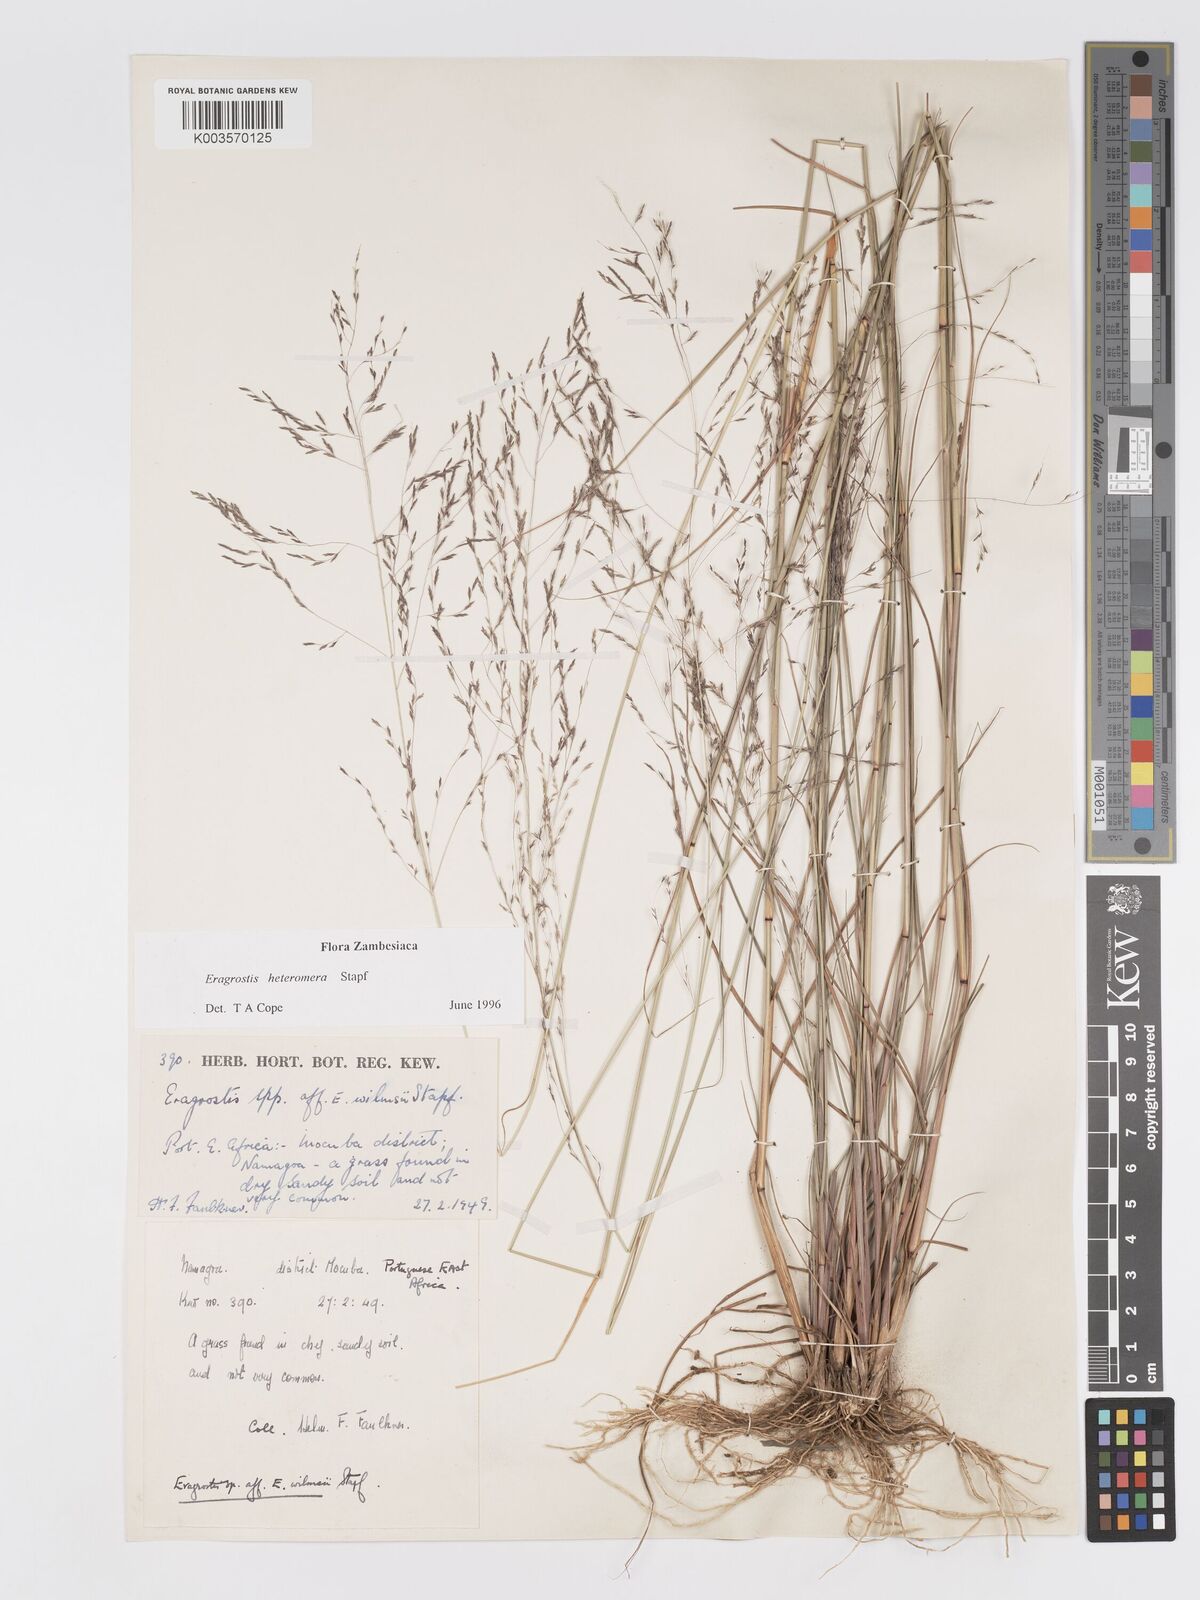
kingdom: Plantae
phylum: Tracheophyta
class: Liliopsida
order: Poales
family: Poaceae
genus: Eragrostis
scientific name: Eragrostis heteromera
